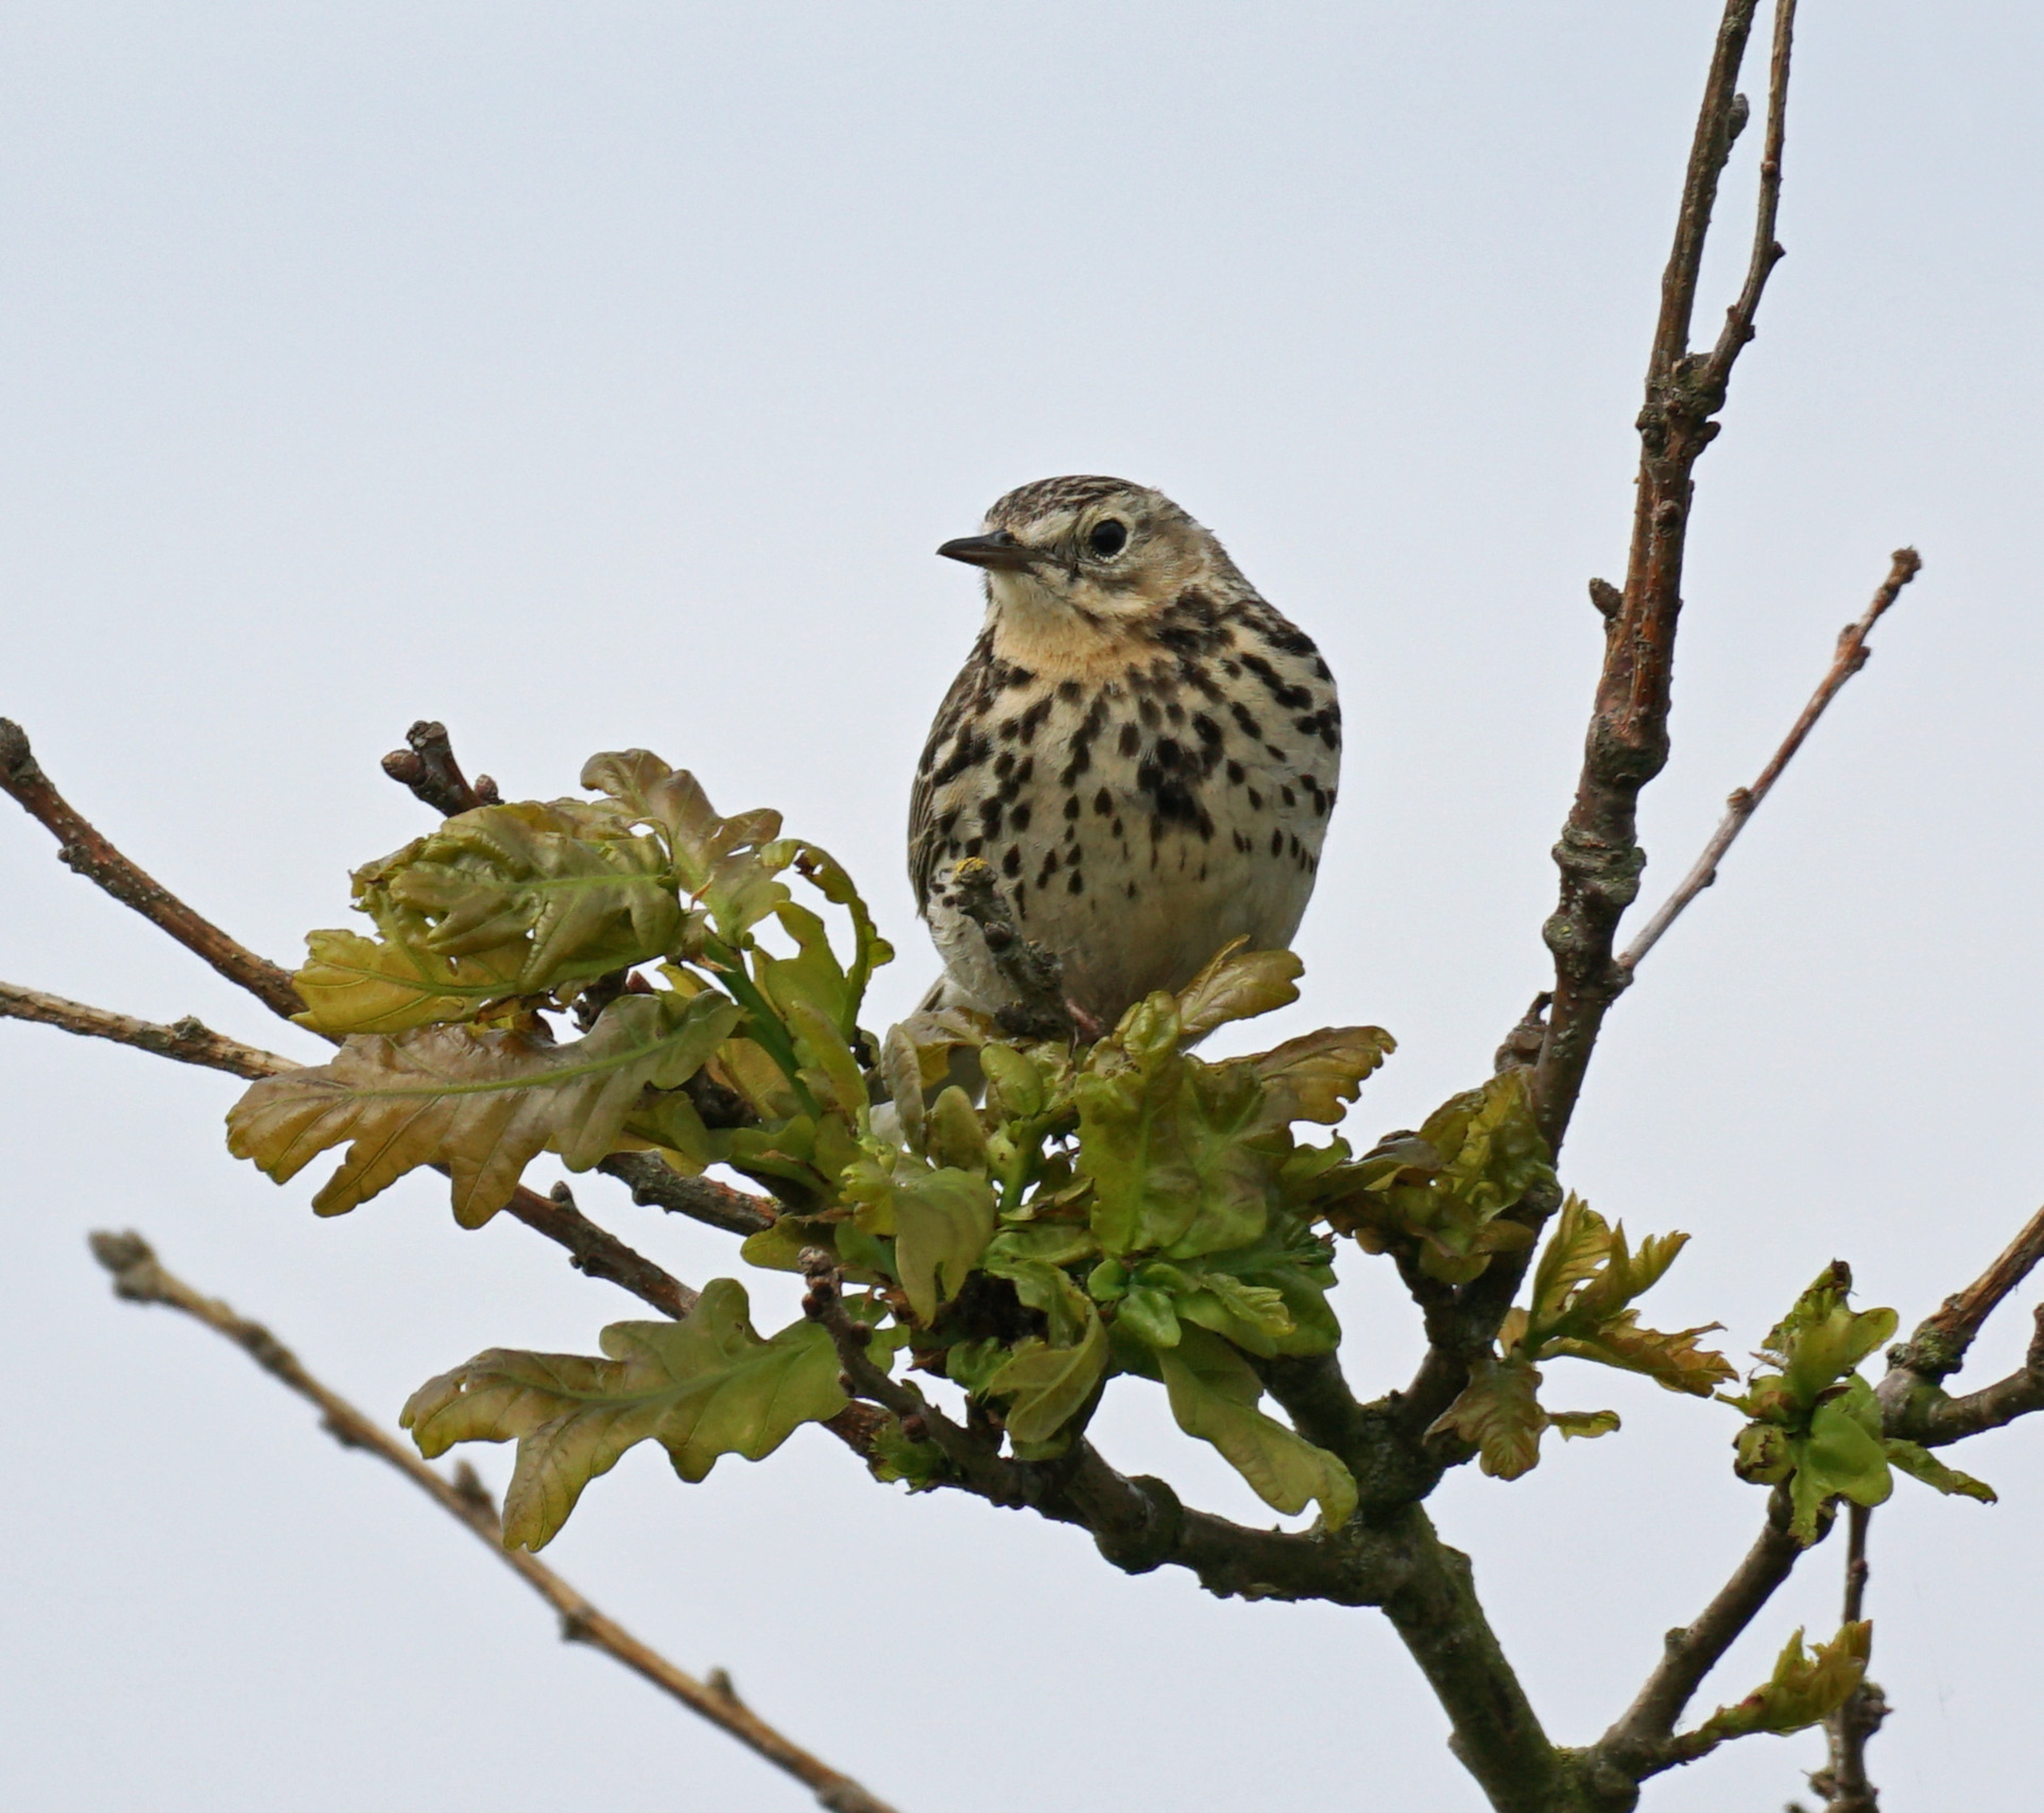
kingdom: Animalia
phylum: Chordata
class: Aves
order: Passeriformes
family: Motacillidae
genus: Anthus
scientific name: Anthus pratensis
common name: Engpiber
